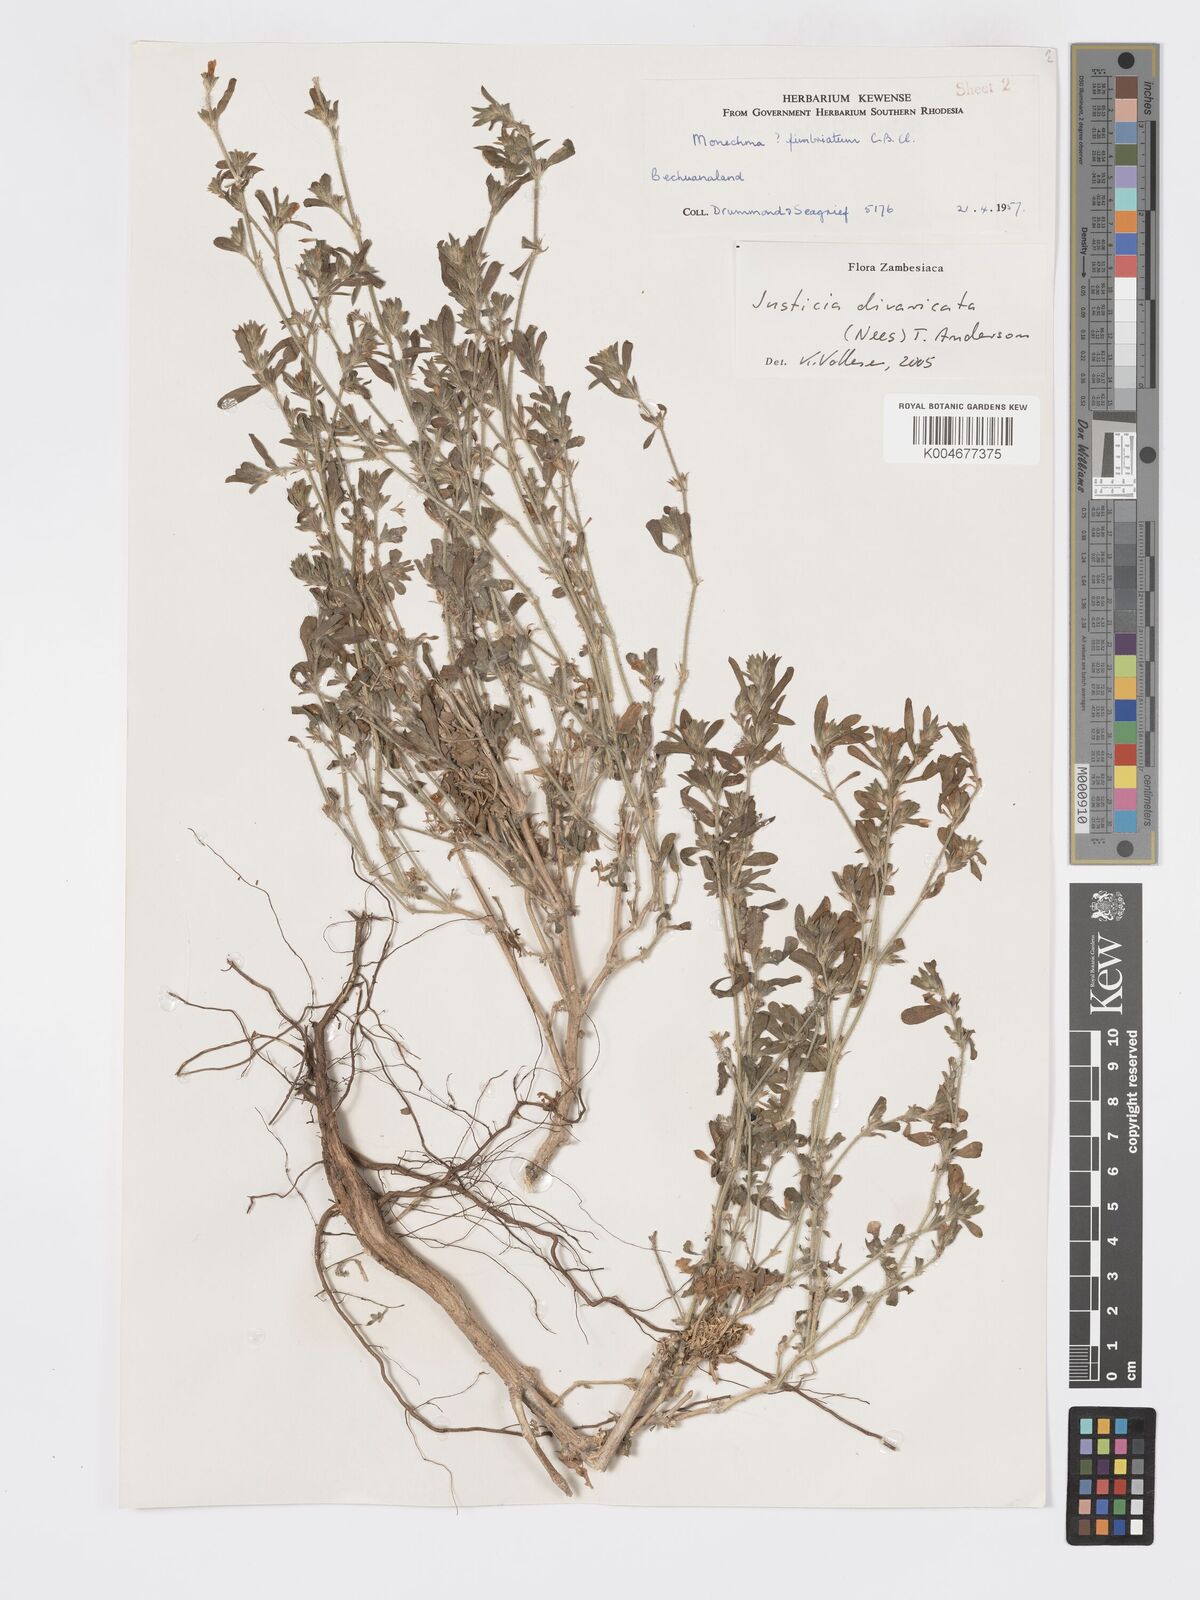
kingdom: Plantae
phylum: Tracheophyta
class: Magnoliopsida
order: Lamiales
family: Acanthaceae
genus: Pogonospermum
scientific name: Pogonospermum
